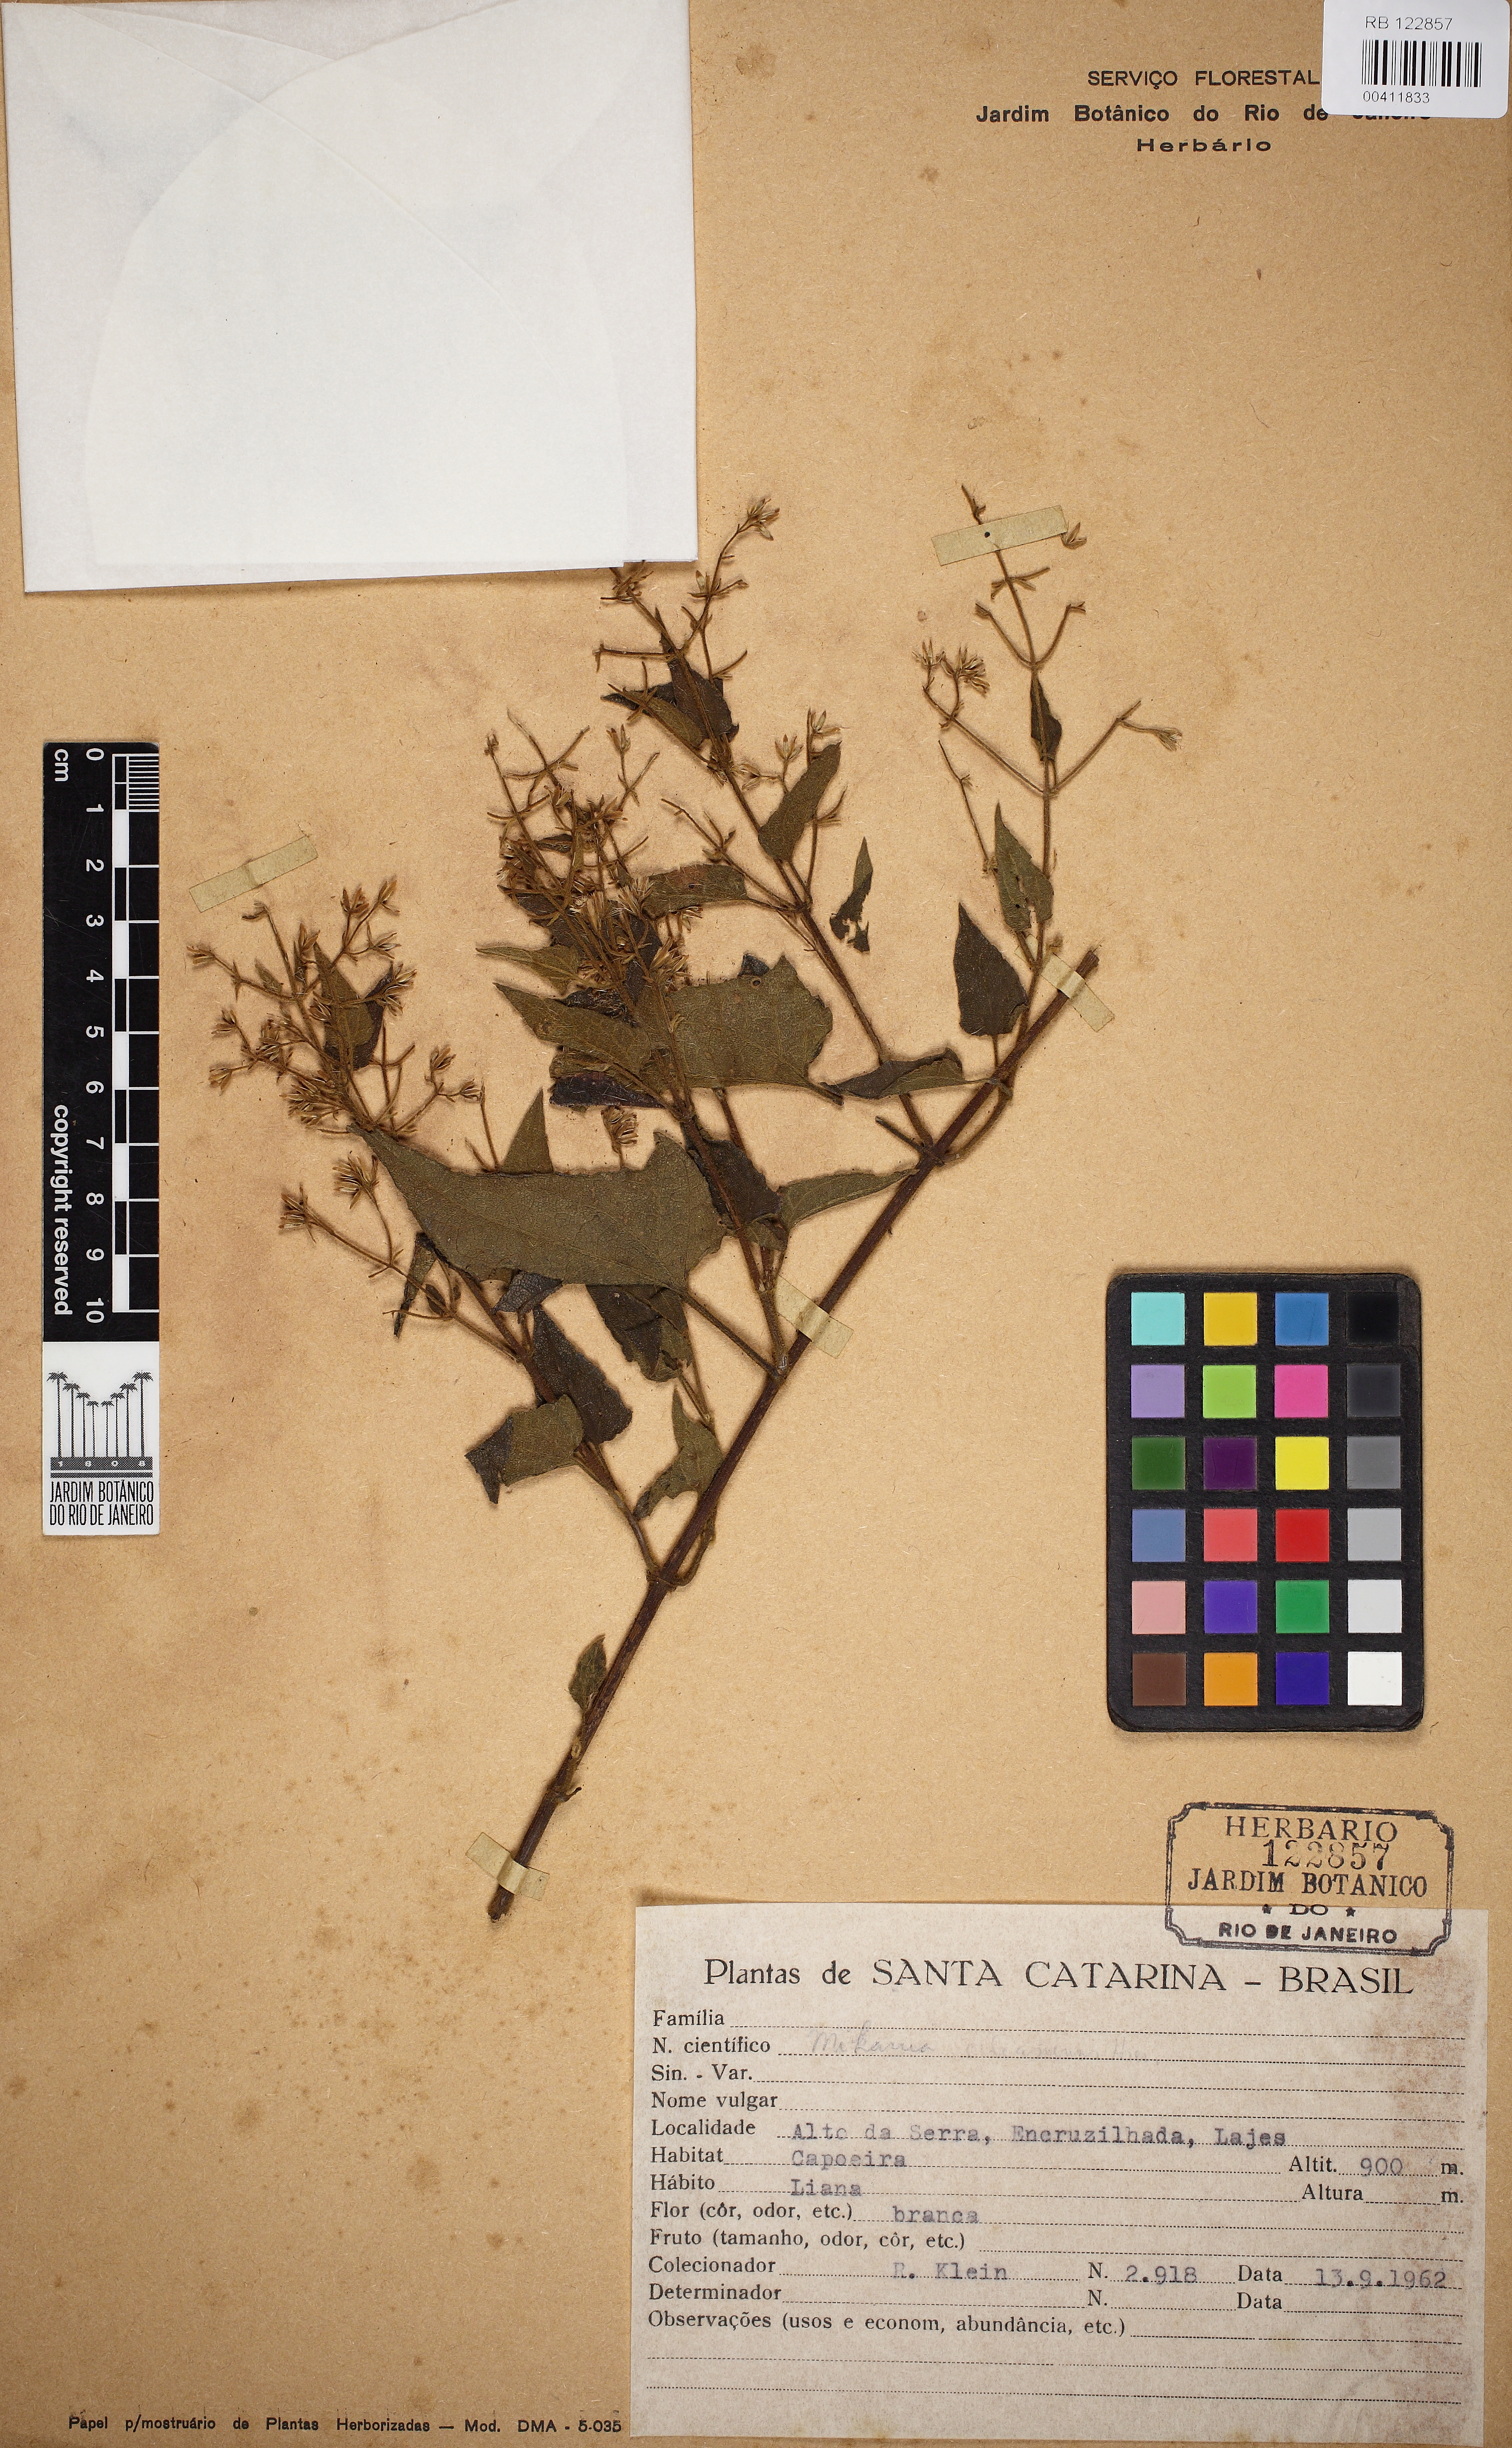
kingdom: Plantae
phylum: Tracheophyta
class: Magnoliopsida
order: Asterales
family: Asteraceae
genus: Mikania
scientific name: Mikania orleansensis
